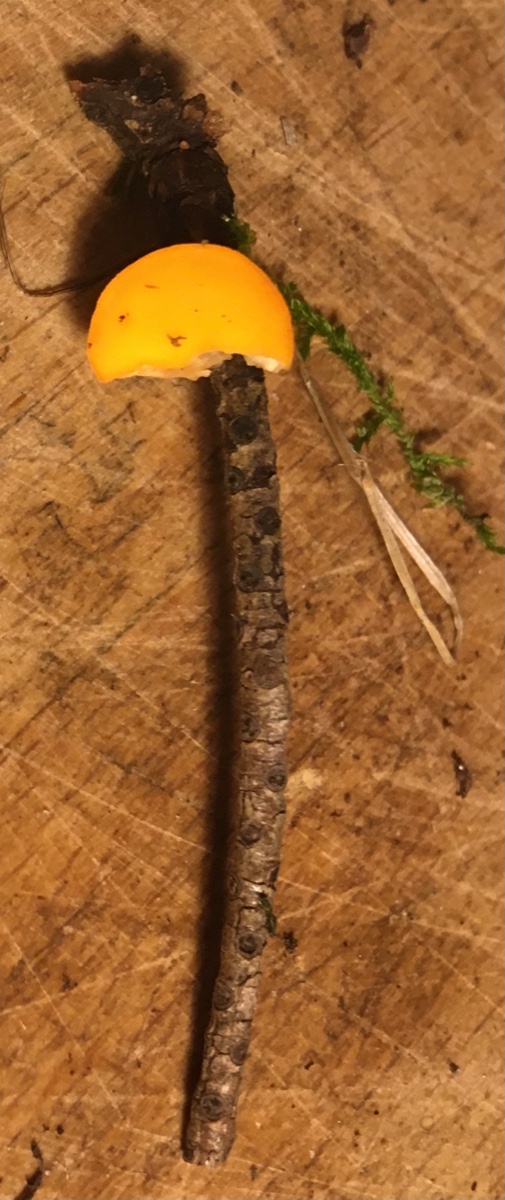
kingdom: Fungi
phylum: Ascomycota
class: Pezizomycetes
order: Pezizales
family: Sarcoscyphaceae
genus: Pithya
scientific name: Pithya vulgaris
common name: stor dukatbæger
